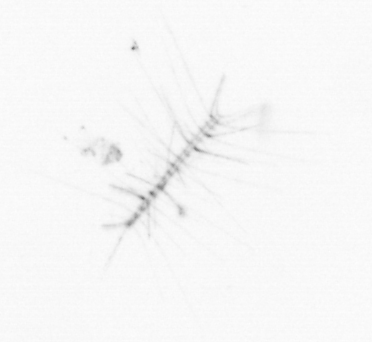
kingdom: Chromista
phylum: Ochrophyta
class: Bacillariophyceae
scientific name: Bacillariophyceae
